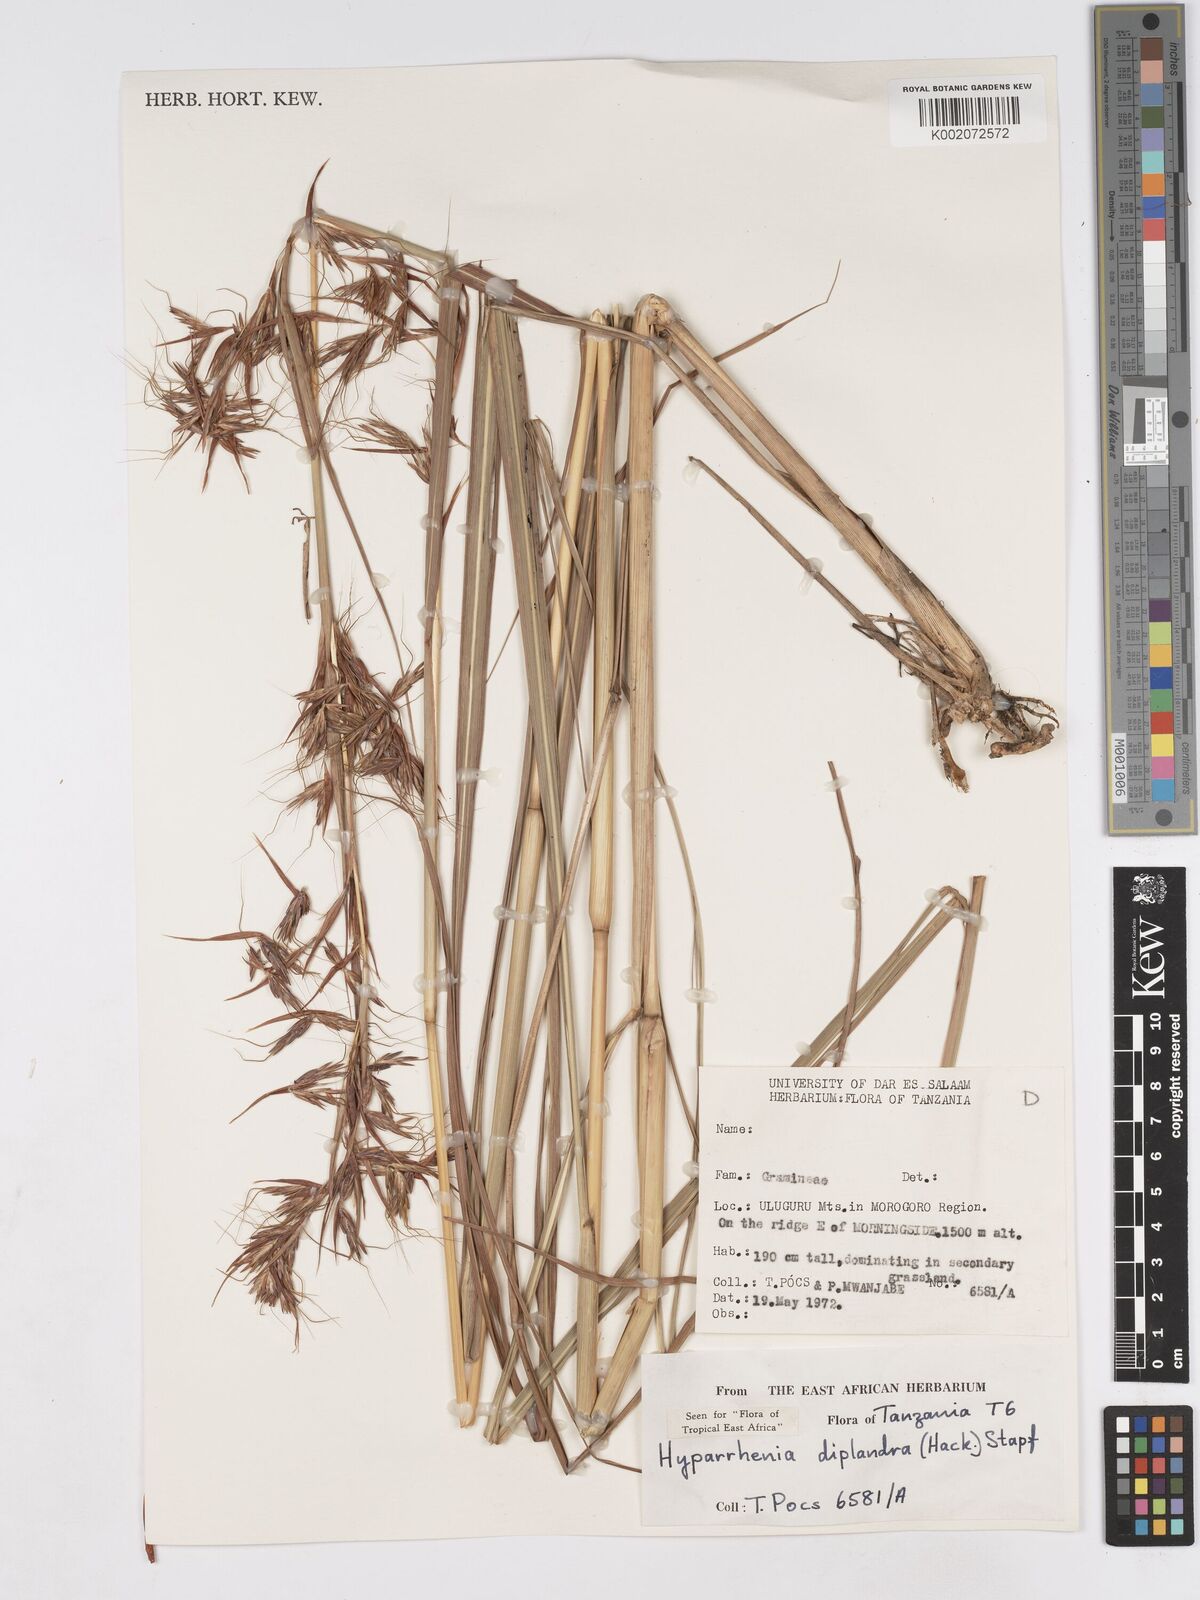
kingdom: Plantae
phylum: Tracheophyta
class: Liliopsida
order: Poales
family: Poaceae
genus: Hyparrhenia
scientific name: Hyparrhenia diplandra
